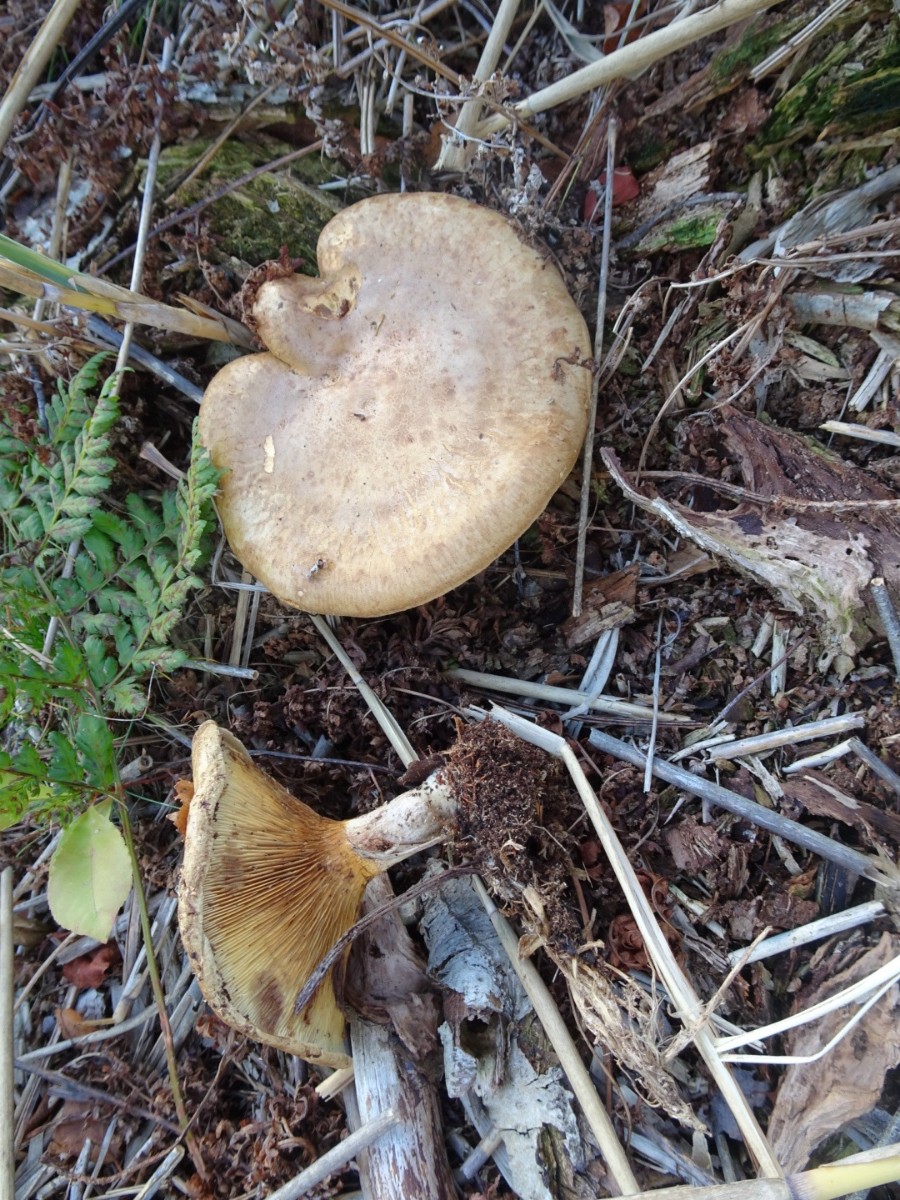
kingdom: Fungi
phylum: Basidiomycota
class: Agaricomycetes
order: Boletales
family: Paxillaceae
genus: Paxillus
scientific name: Paxillus involutus
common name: almindelig netbladhat
